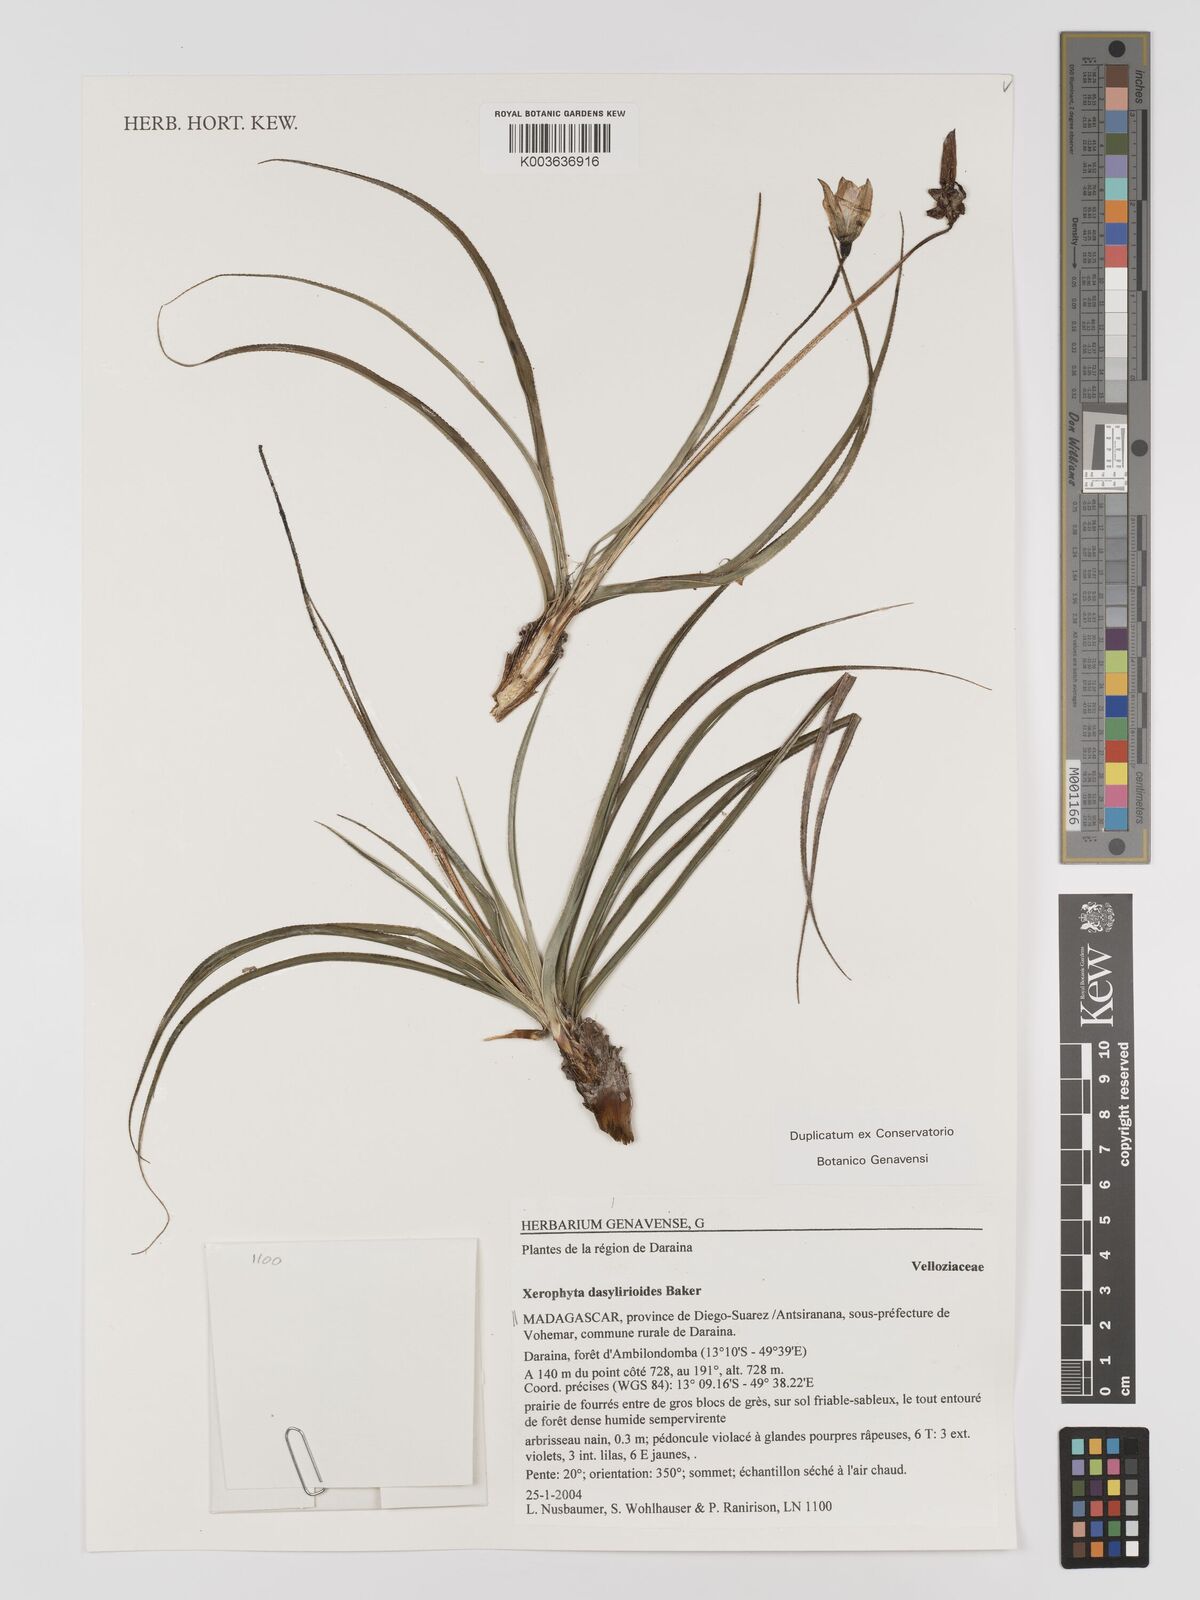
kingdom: Plantae
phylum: Tracheophyta
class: Liliopsida
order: Pandanales
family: Velloziaceae
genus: Xerophyta
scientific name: Xerophyta dasylirioides
